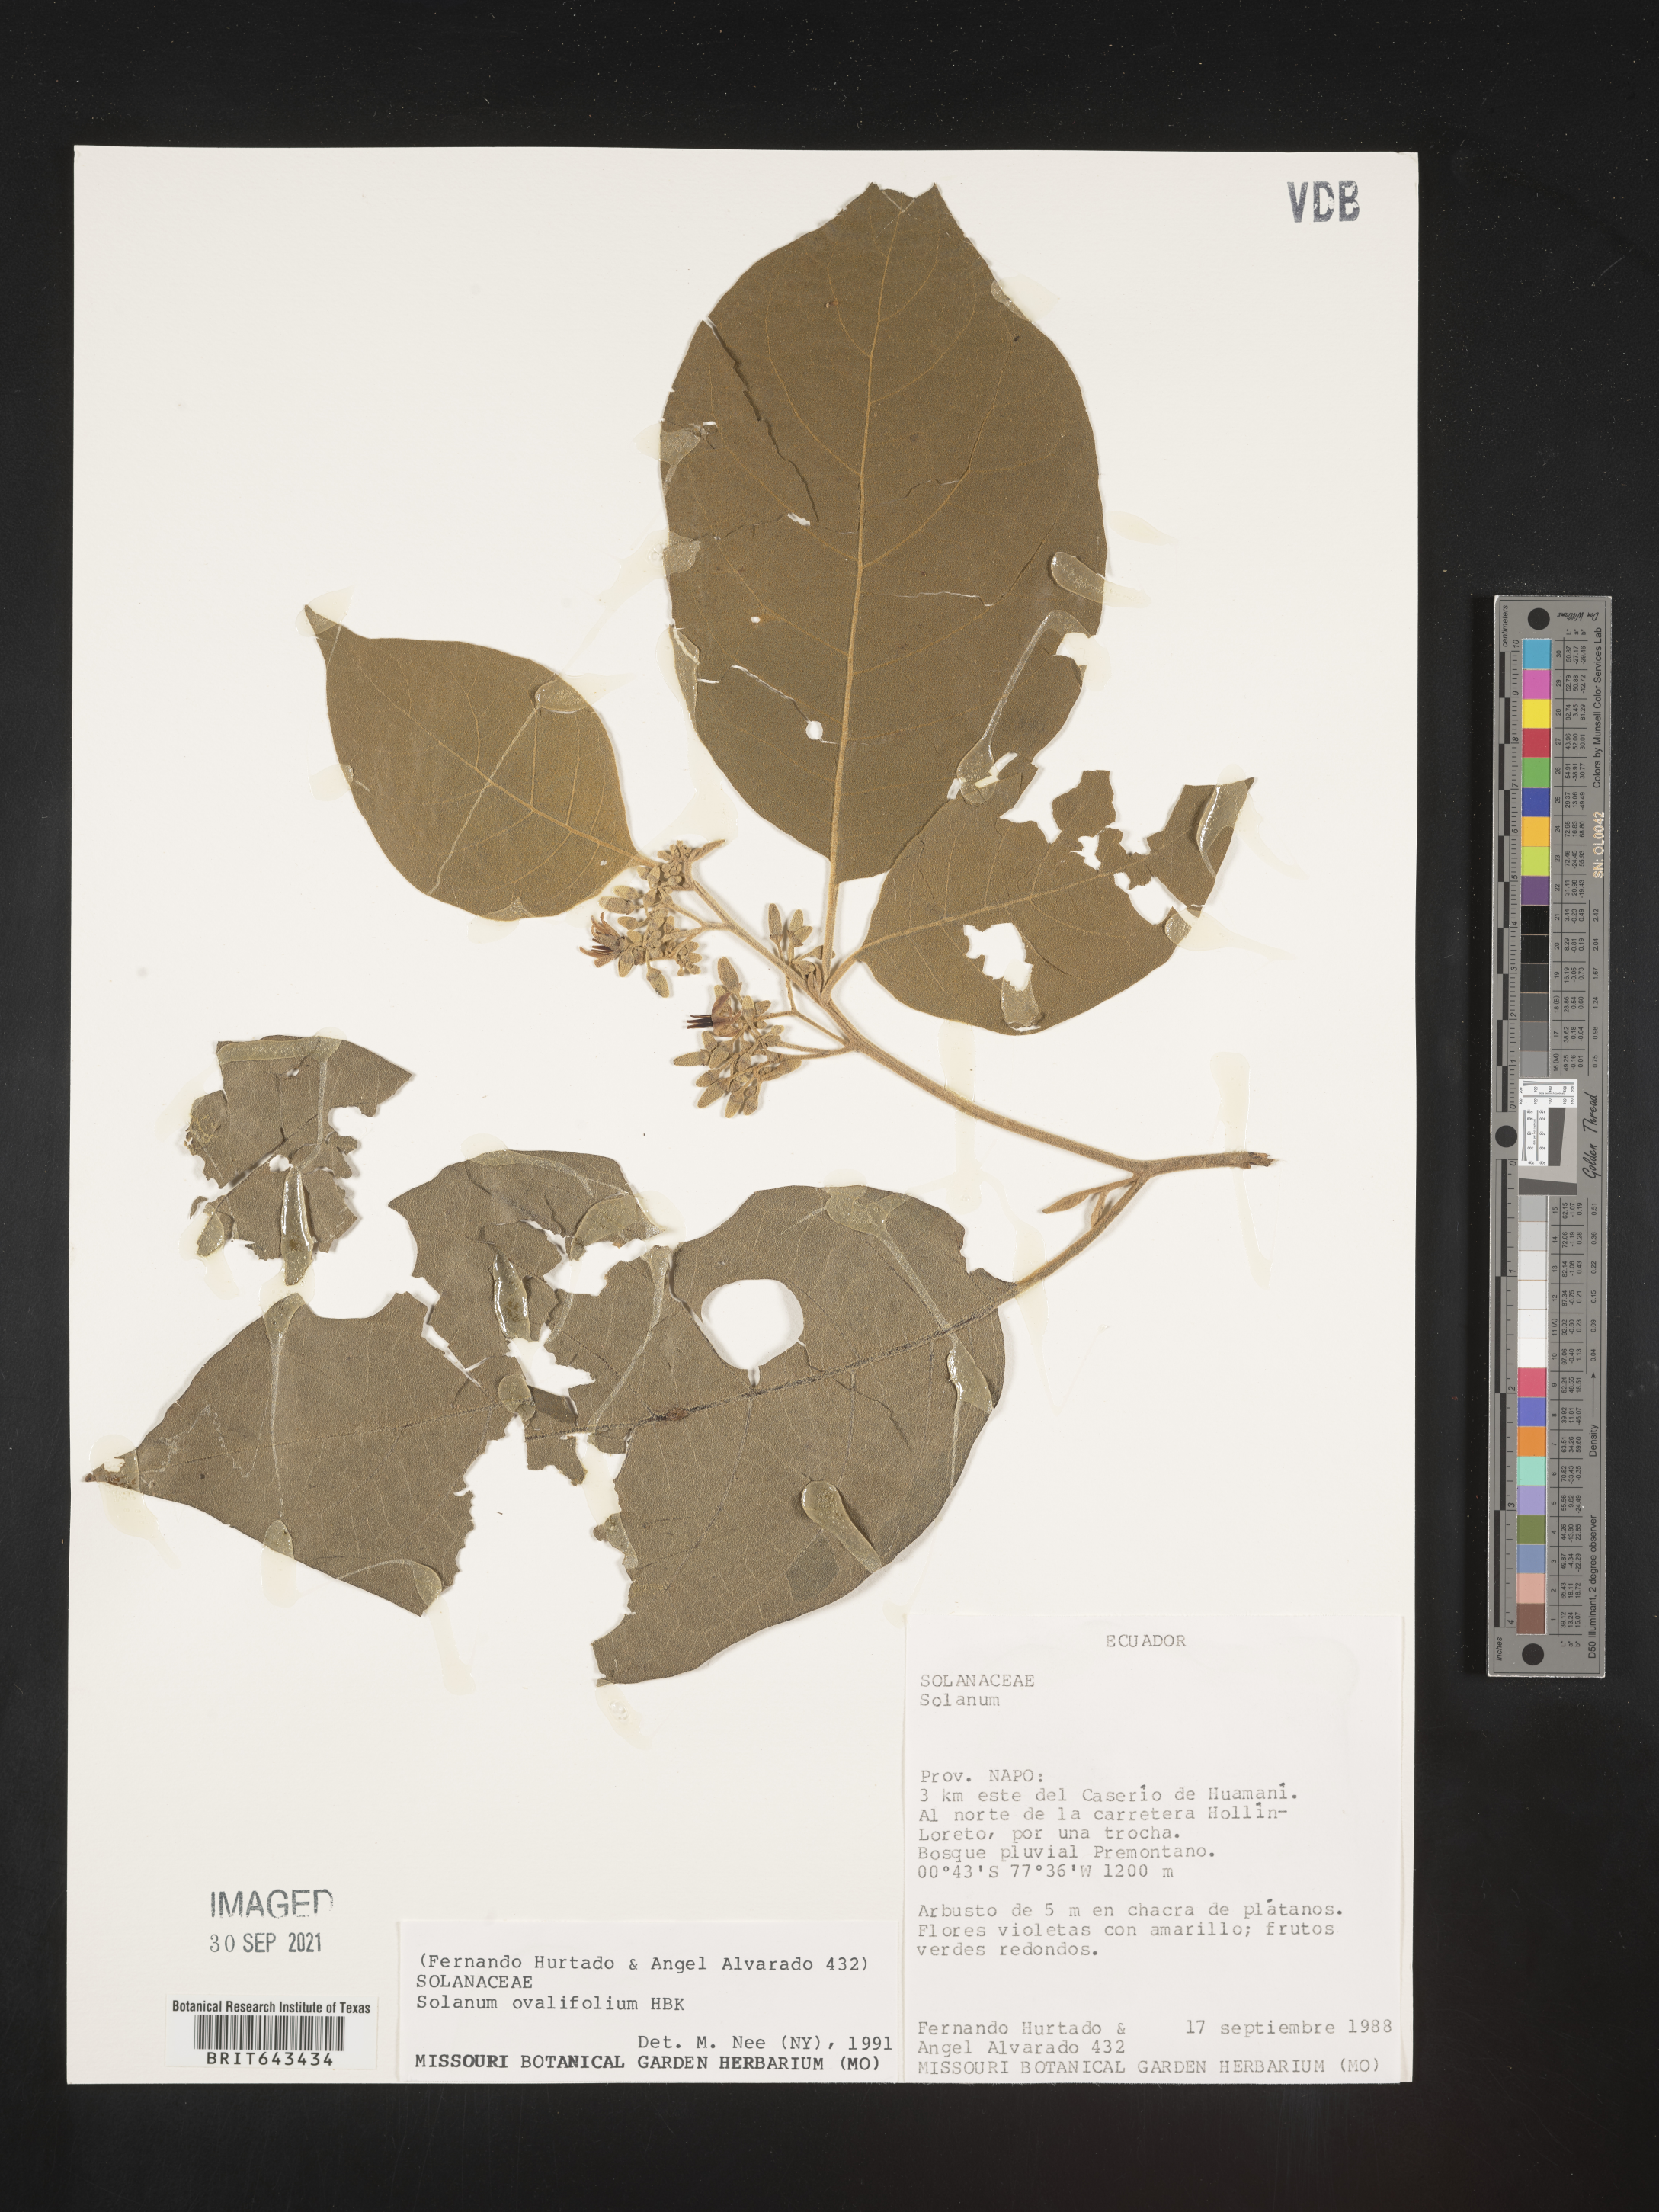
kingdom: Plantae
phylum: Tracheophyta
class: Magnoliopsida
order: Solanales
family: Solanaceae
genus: Solanum
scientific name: Solanum
